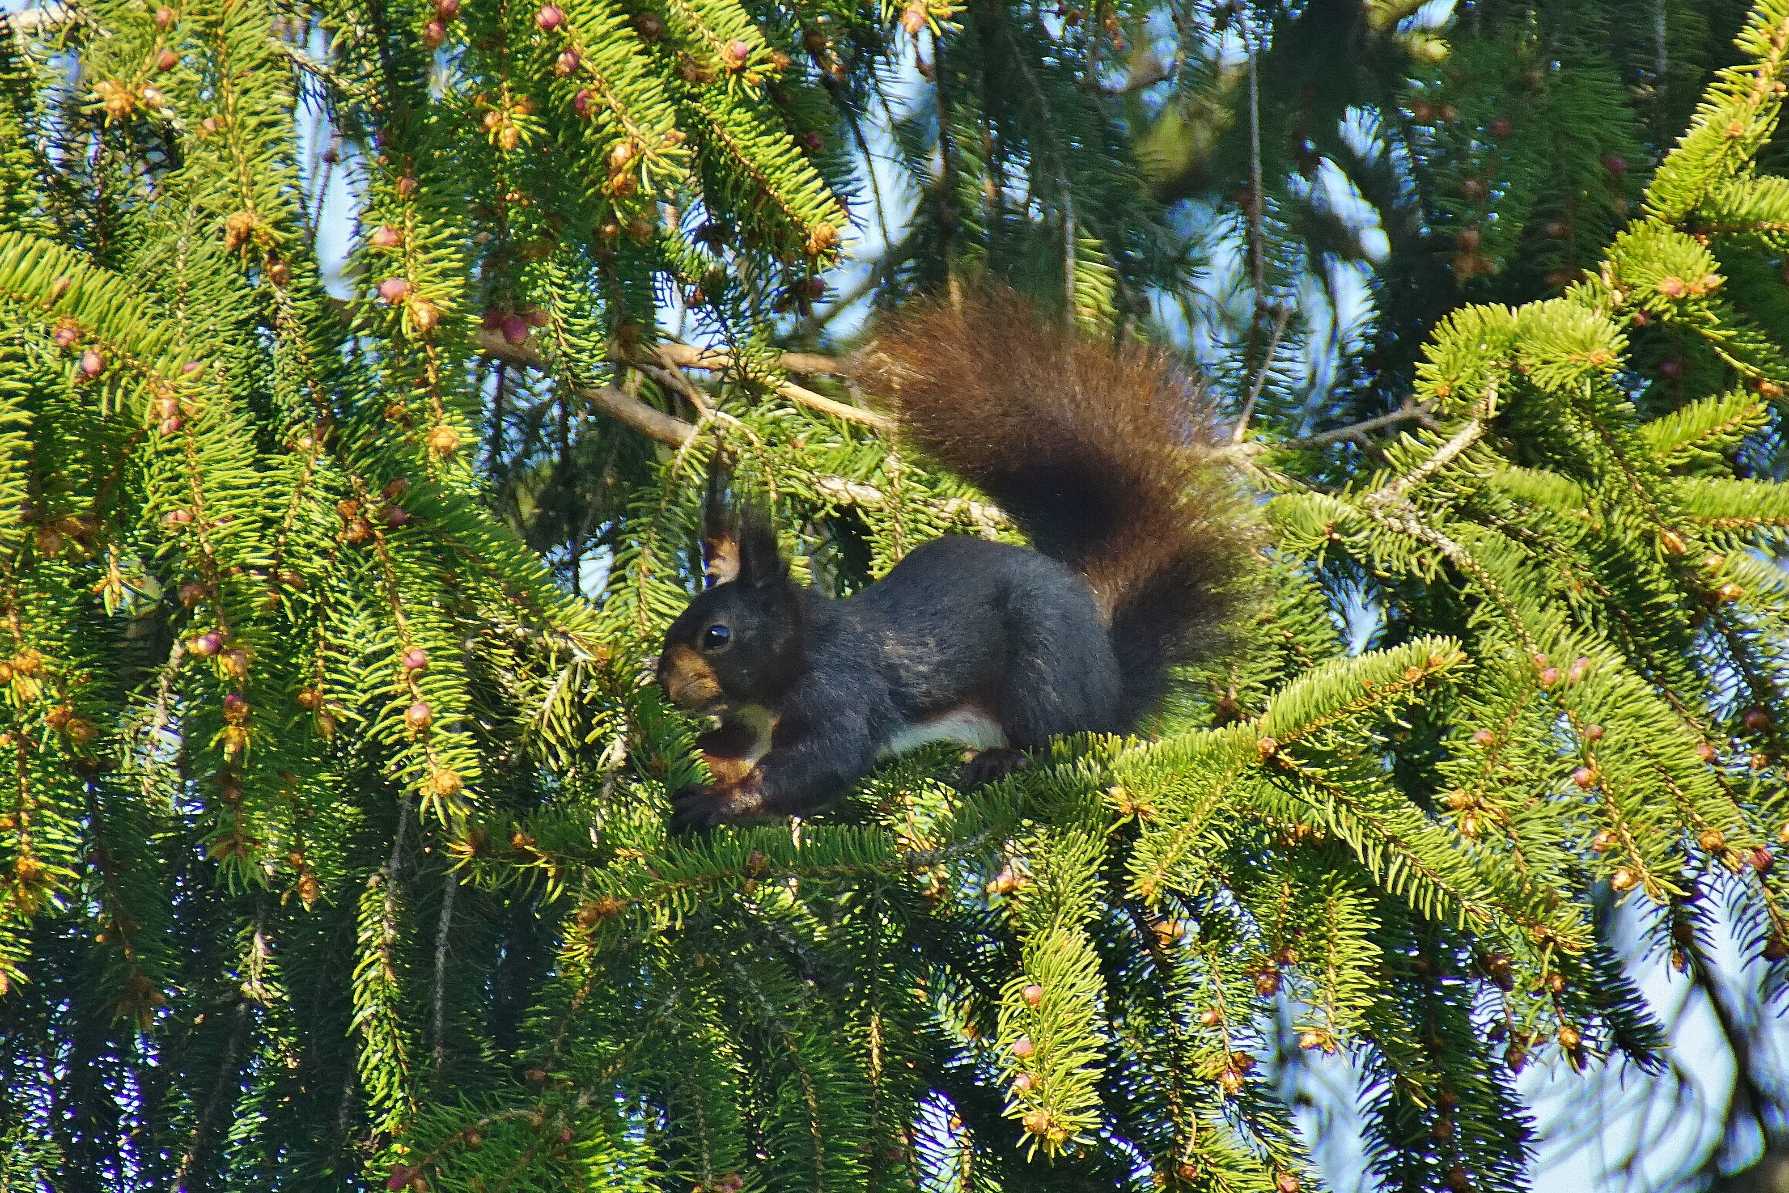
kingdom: Animalia
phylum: Chordata
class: Mammalia
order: Rodentia
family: Sciuridae
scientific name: Sciuridae
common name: Egern
